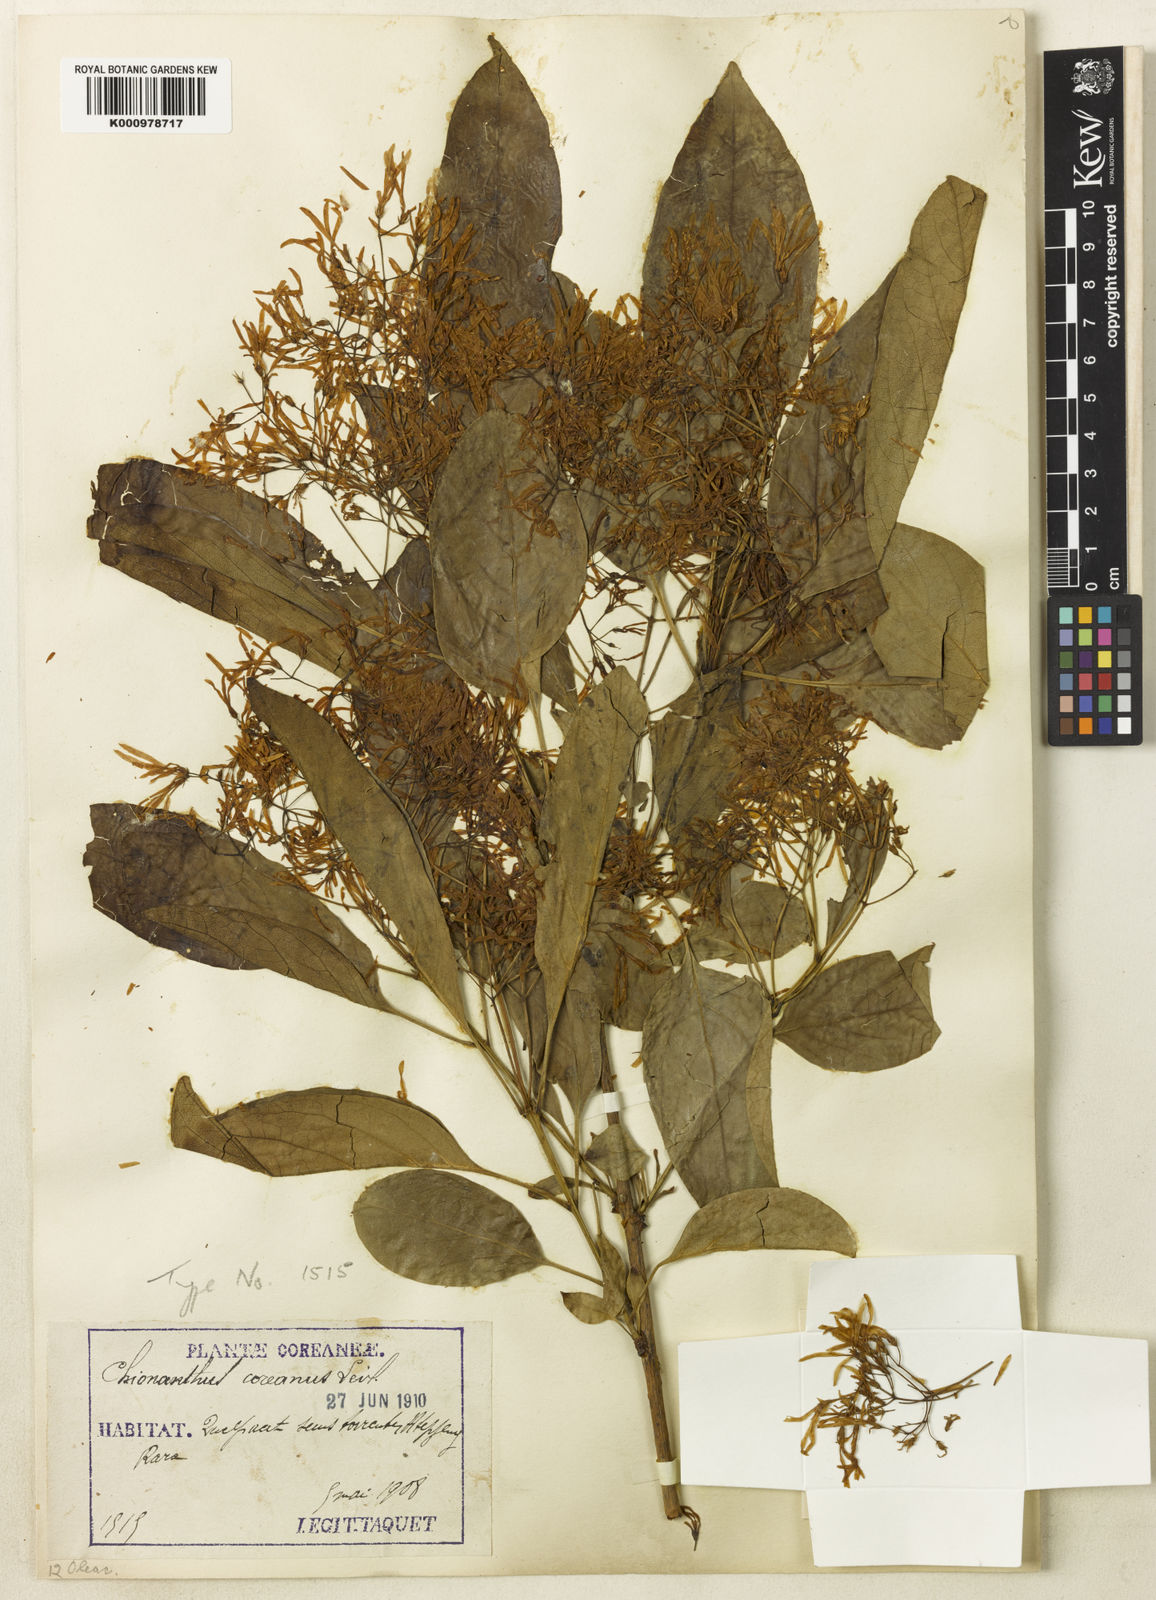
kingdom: Plantae
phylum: Tracheophyta
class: Magnoliopsida
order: Lamiales
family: Oleaceae
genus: Chionanthus
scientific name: Chionanthus retusus
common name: Chinese fringetree
